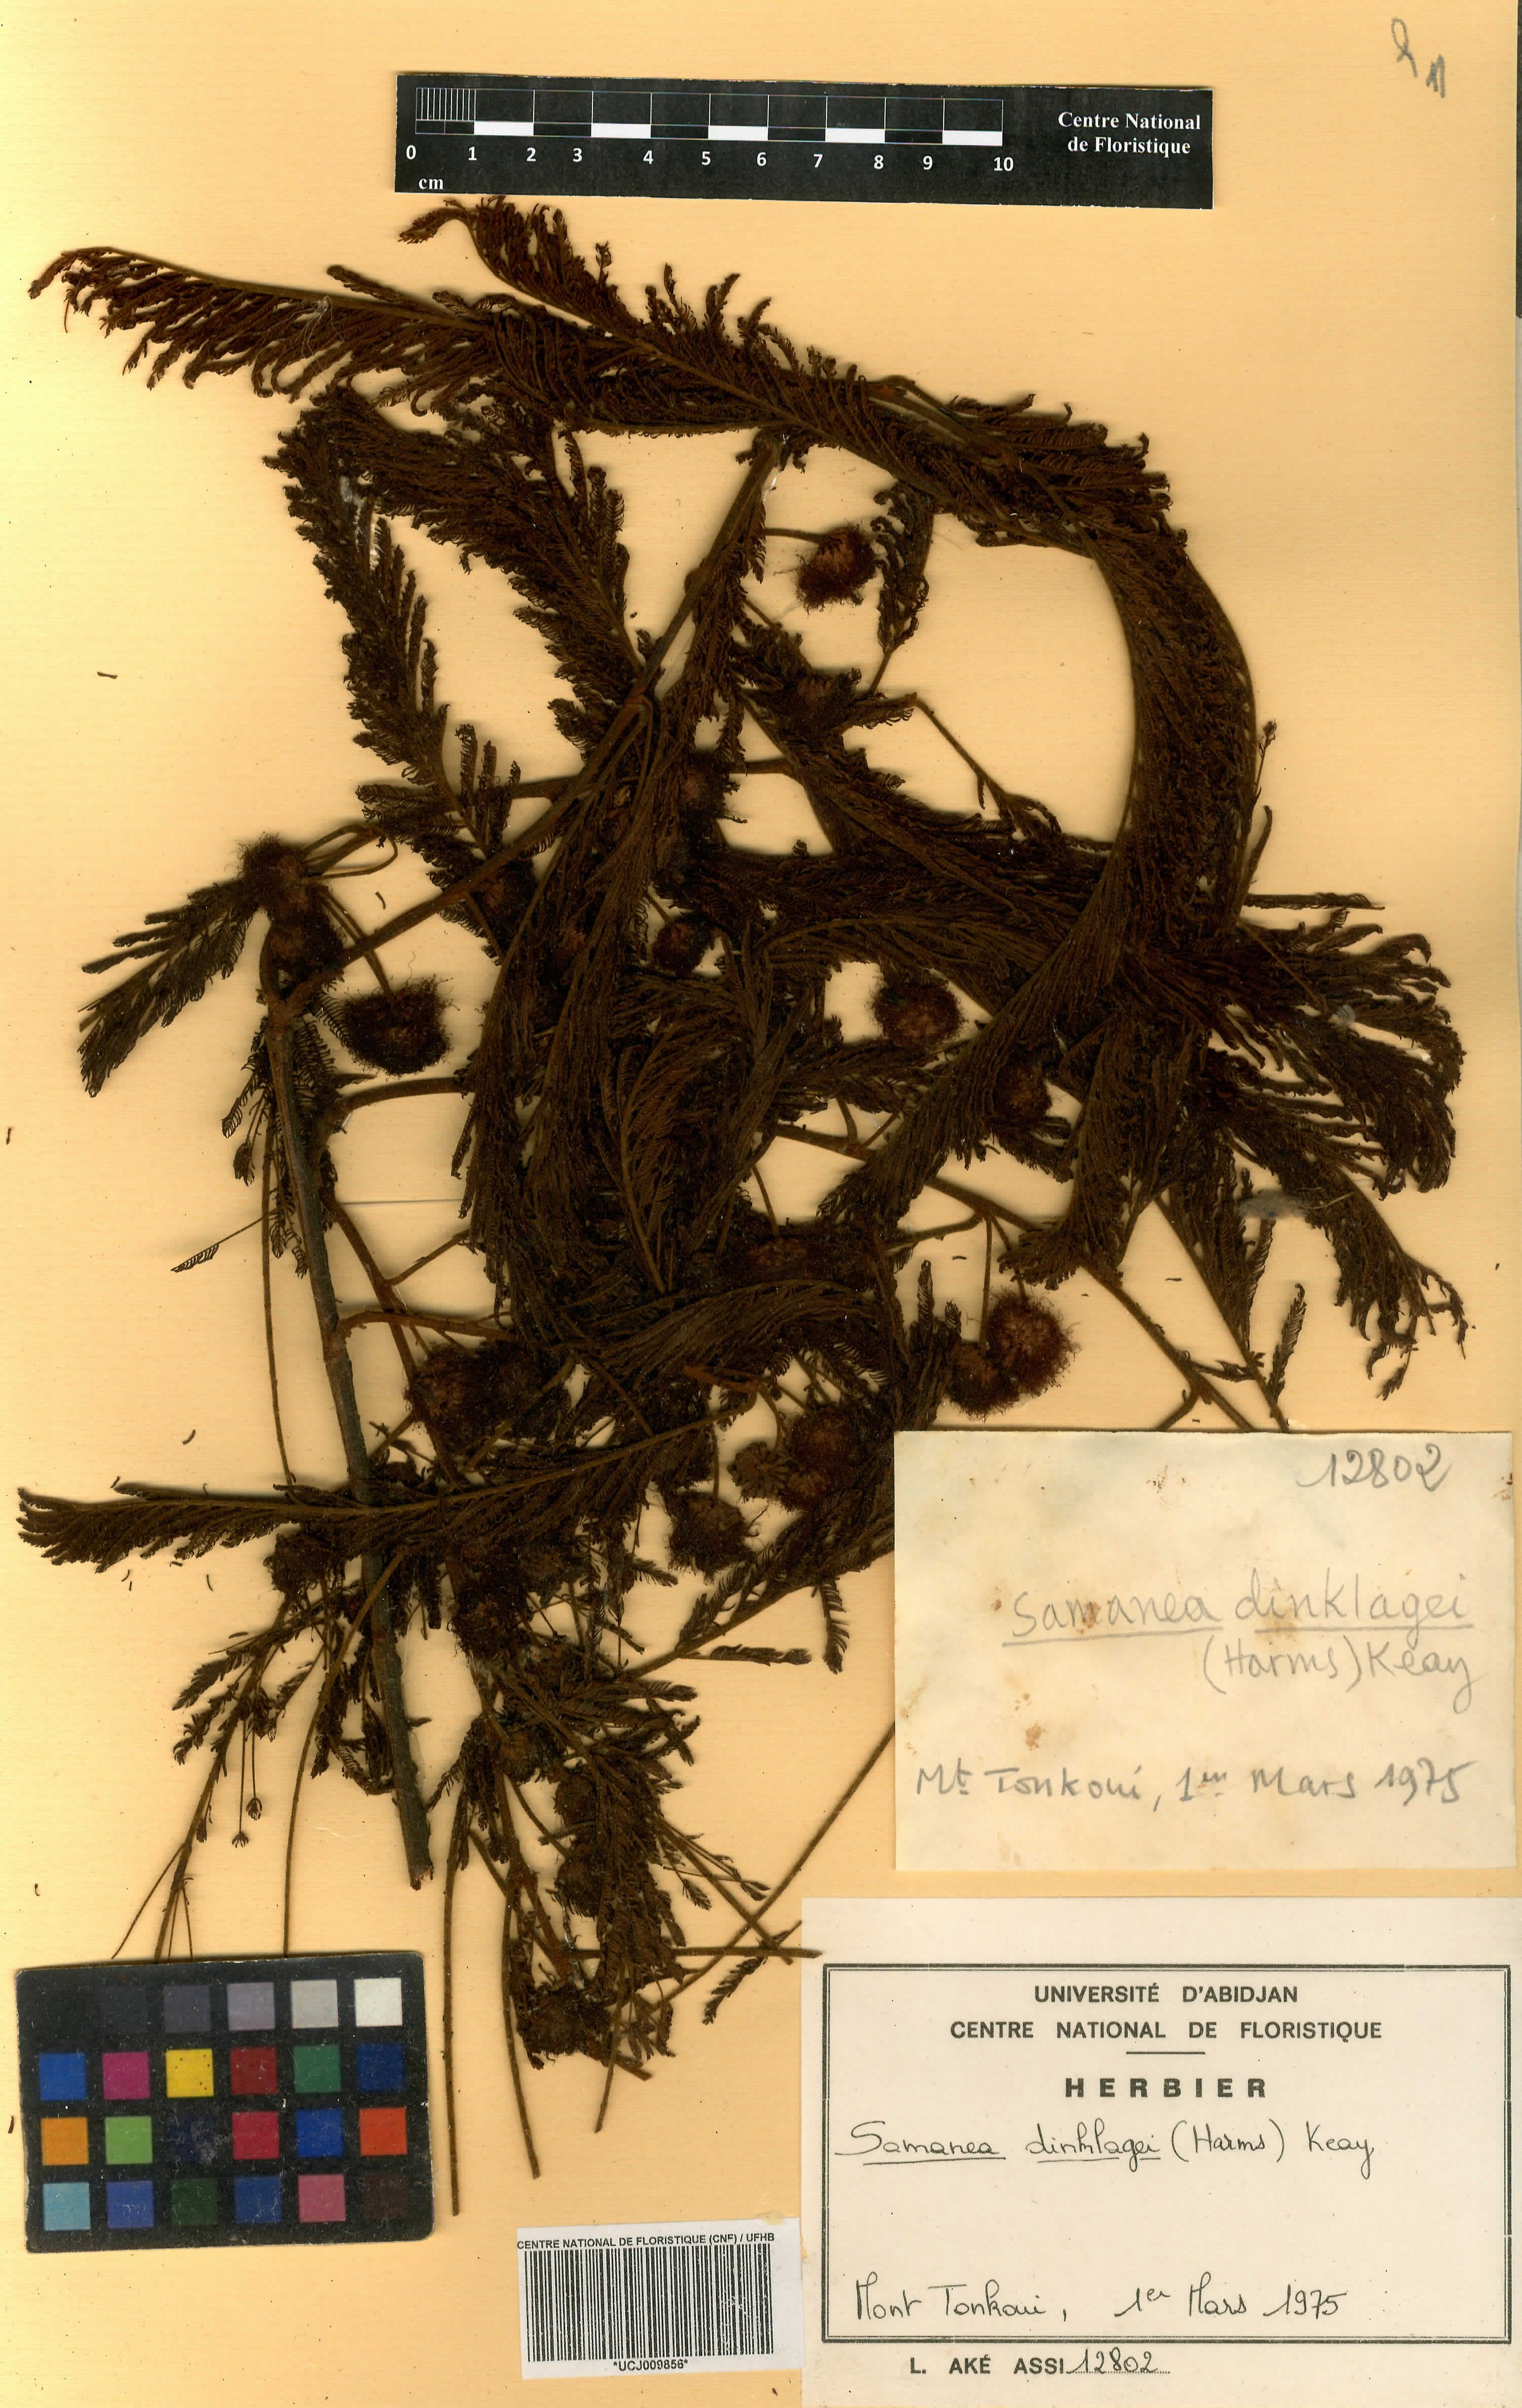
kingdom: Plantae
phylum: Tracheophyta
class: Magnoliopsida
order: Fabales
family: Fabaceae
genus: Albizia
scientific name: Albizia dinklagei
